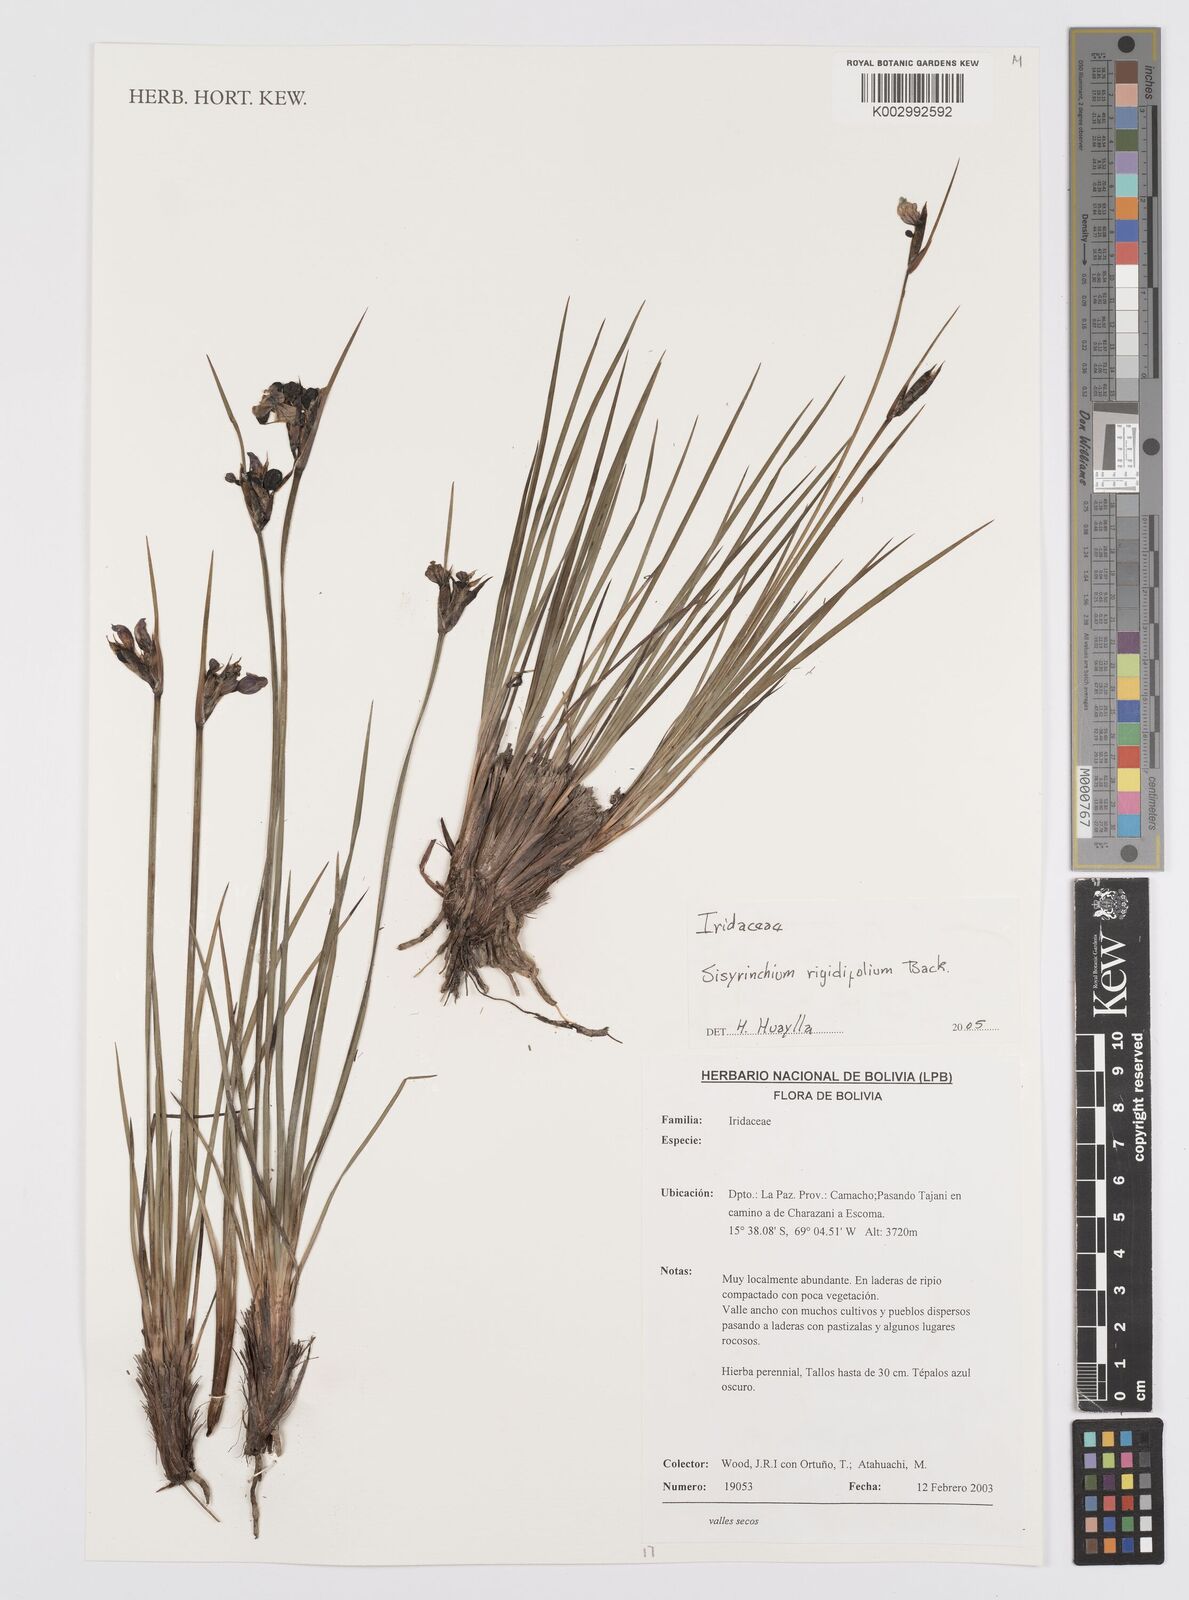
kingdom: Plantae
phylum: Tracheophyta
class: Liliopsida
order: Asparagales
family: Iridaceae
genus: Sisyrinchium
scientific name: Sisyrinchium rigidifolium
